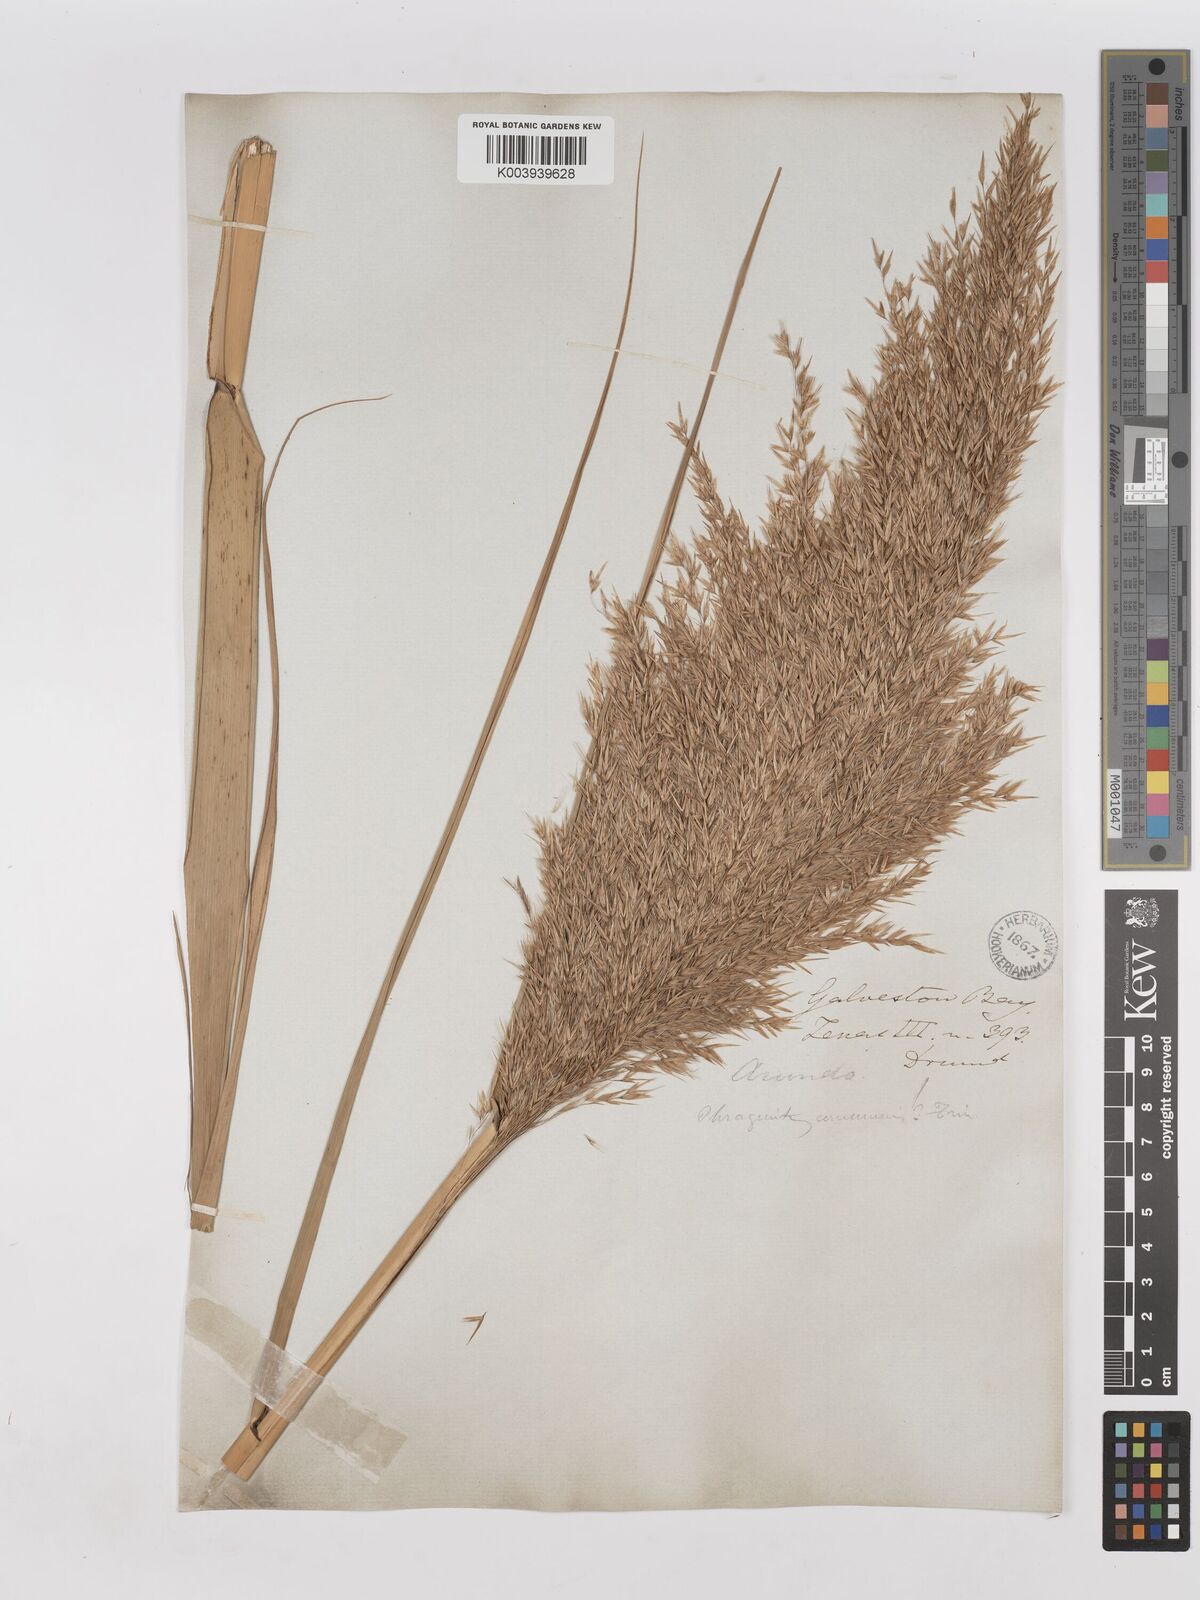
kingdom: Plantae
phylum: Tracheophyta
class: Liliopsida
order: Poales
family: Poaceae
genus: Phragmites
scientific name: Phragmites australis
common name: Common reed
